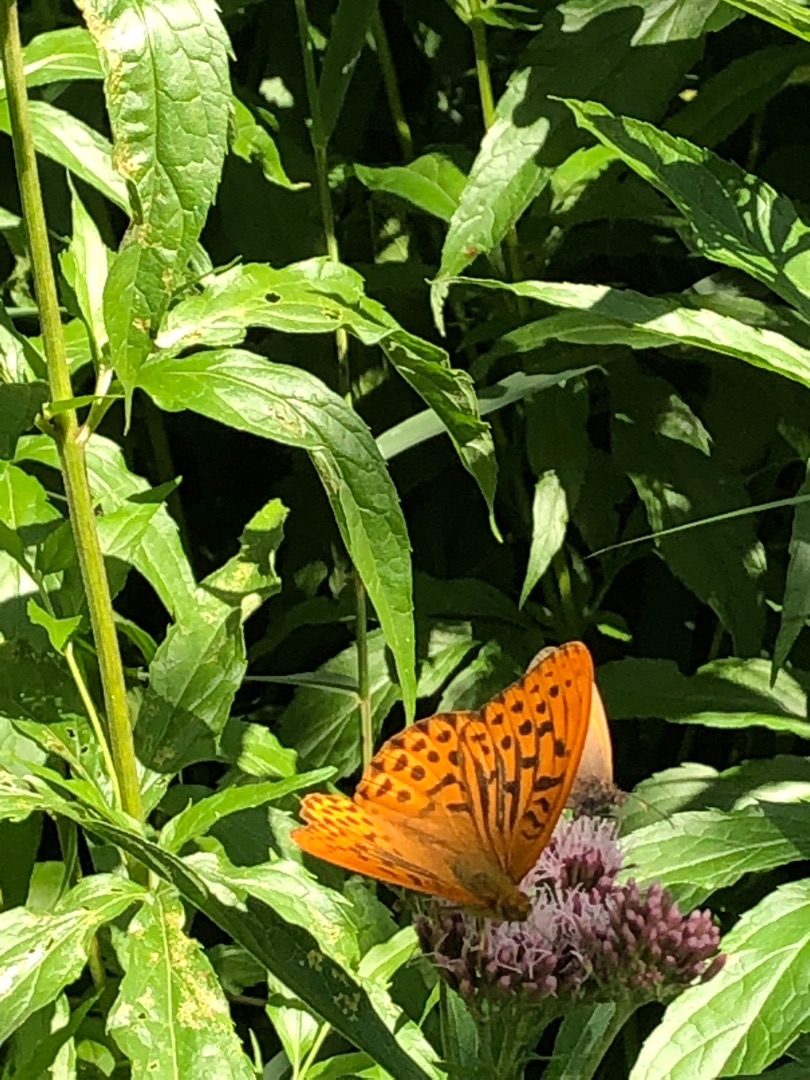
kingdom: Animalia
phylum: Arthropoda
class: Insecta
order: Lepidoptera
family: Nymphalidae
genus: Argynnis
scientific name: Argynnis paphia
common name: Kejserkåbe
